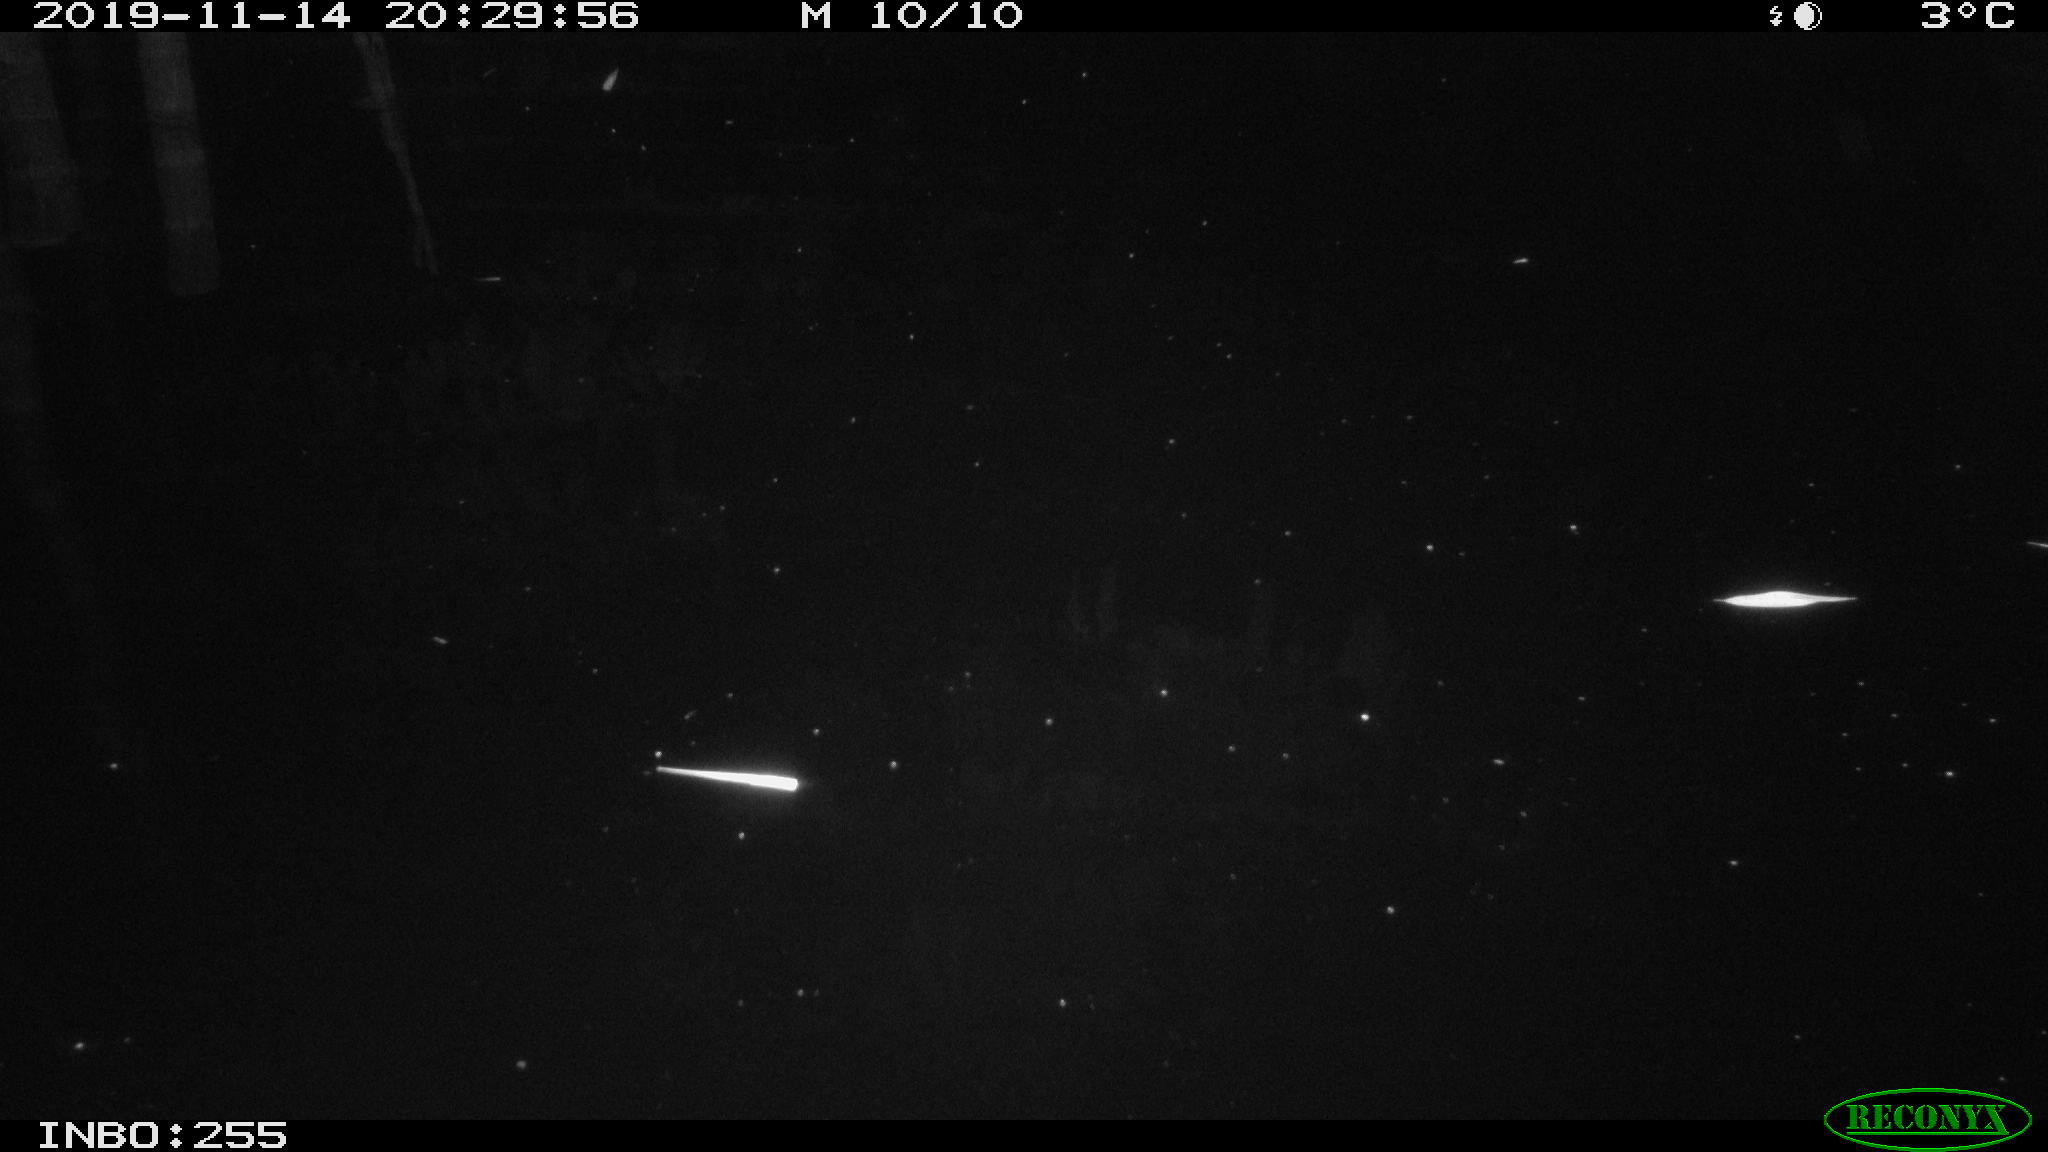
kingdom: Animalia
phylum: Chordata
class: Mammalia
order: Rodentia
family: Muridae
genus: Rattus
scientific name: Rattus norvegicus
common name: Brown rat
